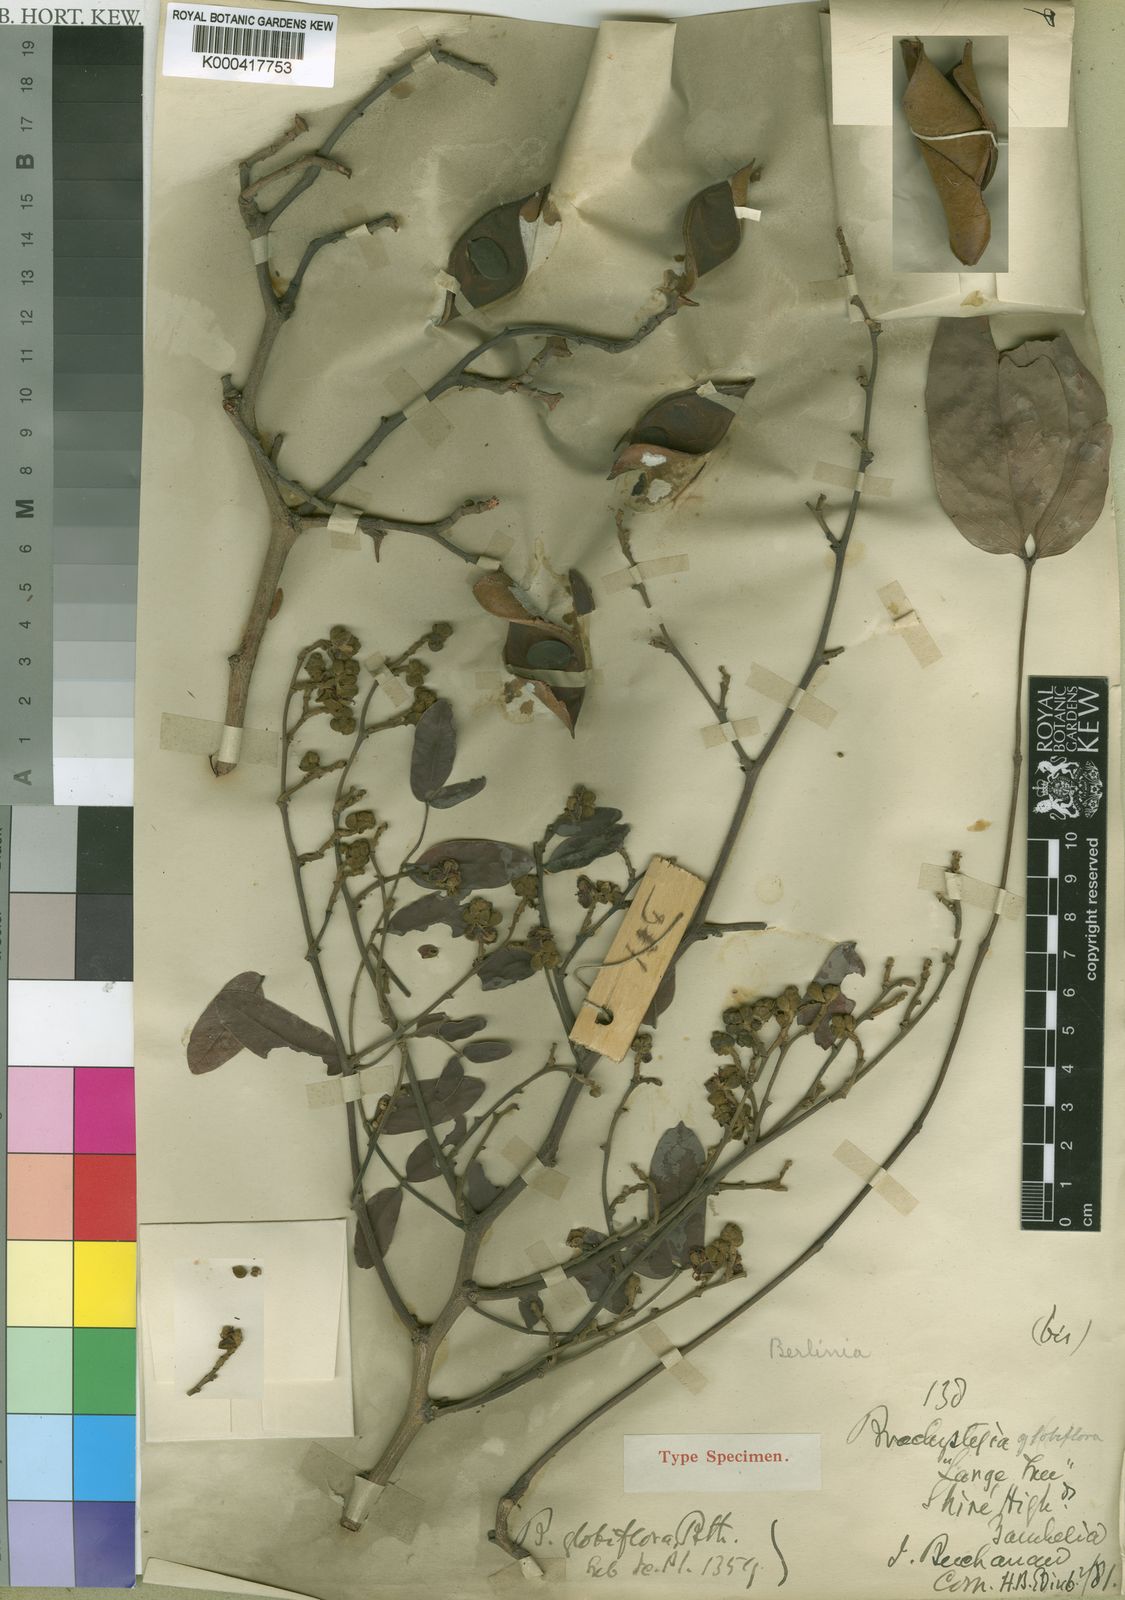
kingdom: Plantae
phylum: Tracheophyta
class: Magnoliopsida
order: Fabales
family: Fabaceae
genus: Julbernardia
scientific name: Julbernardia globiflora
